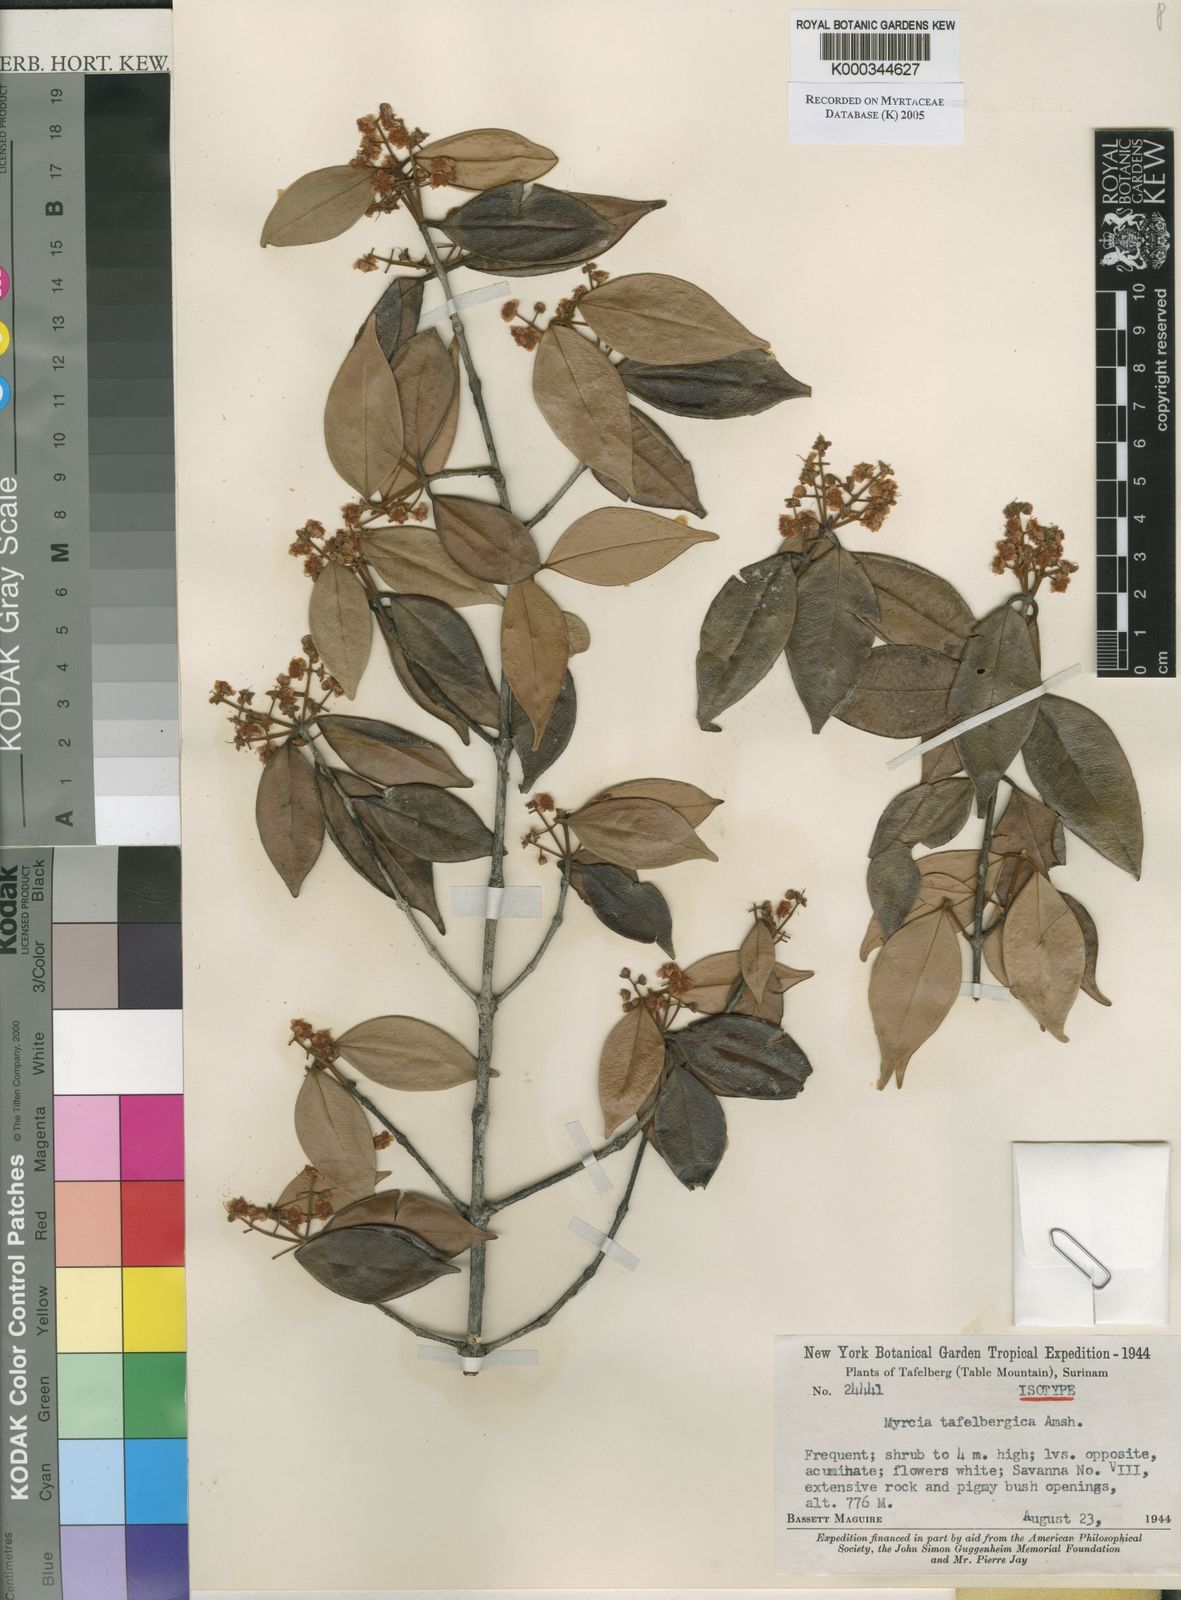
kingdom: Plantae
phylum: Tracheophyta
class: Magnoliopsida
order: Myrtales
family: Myrtaceae
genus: Myrcia
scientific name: Myrcia tafelbergica
